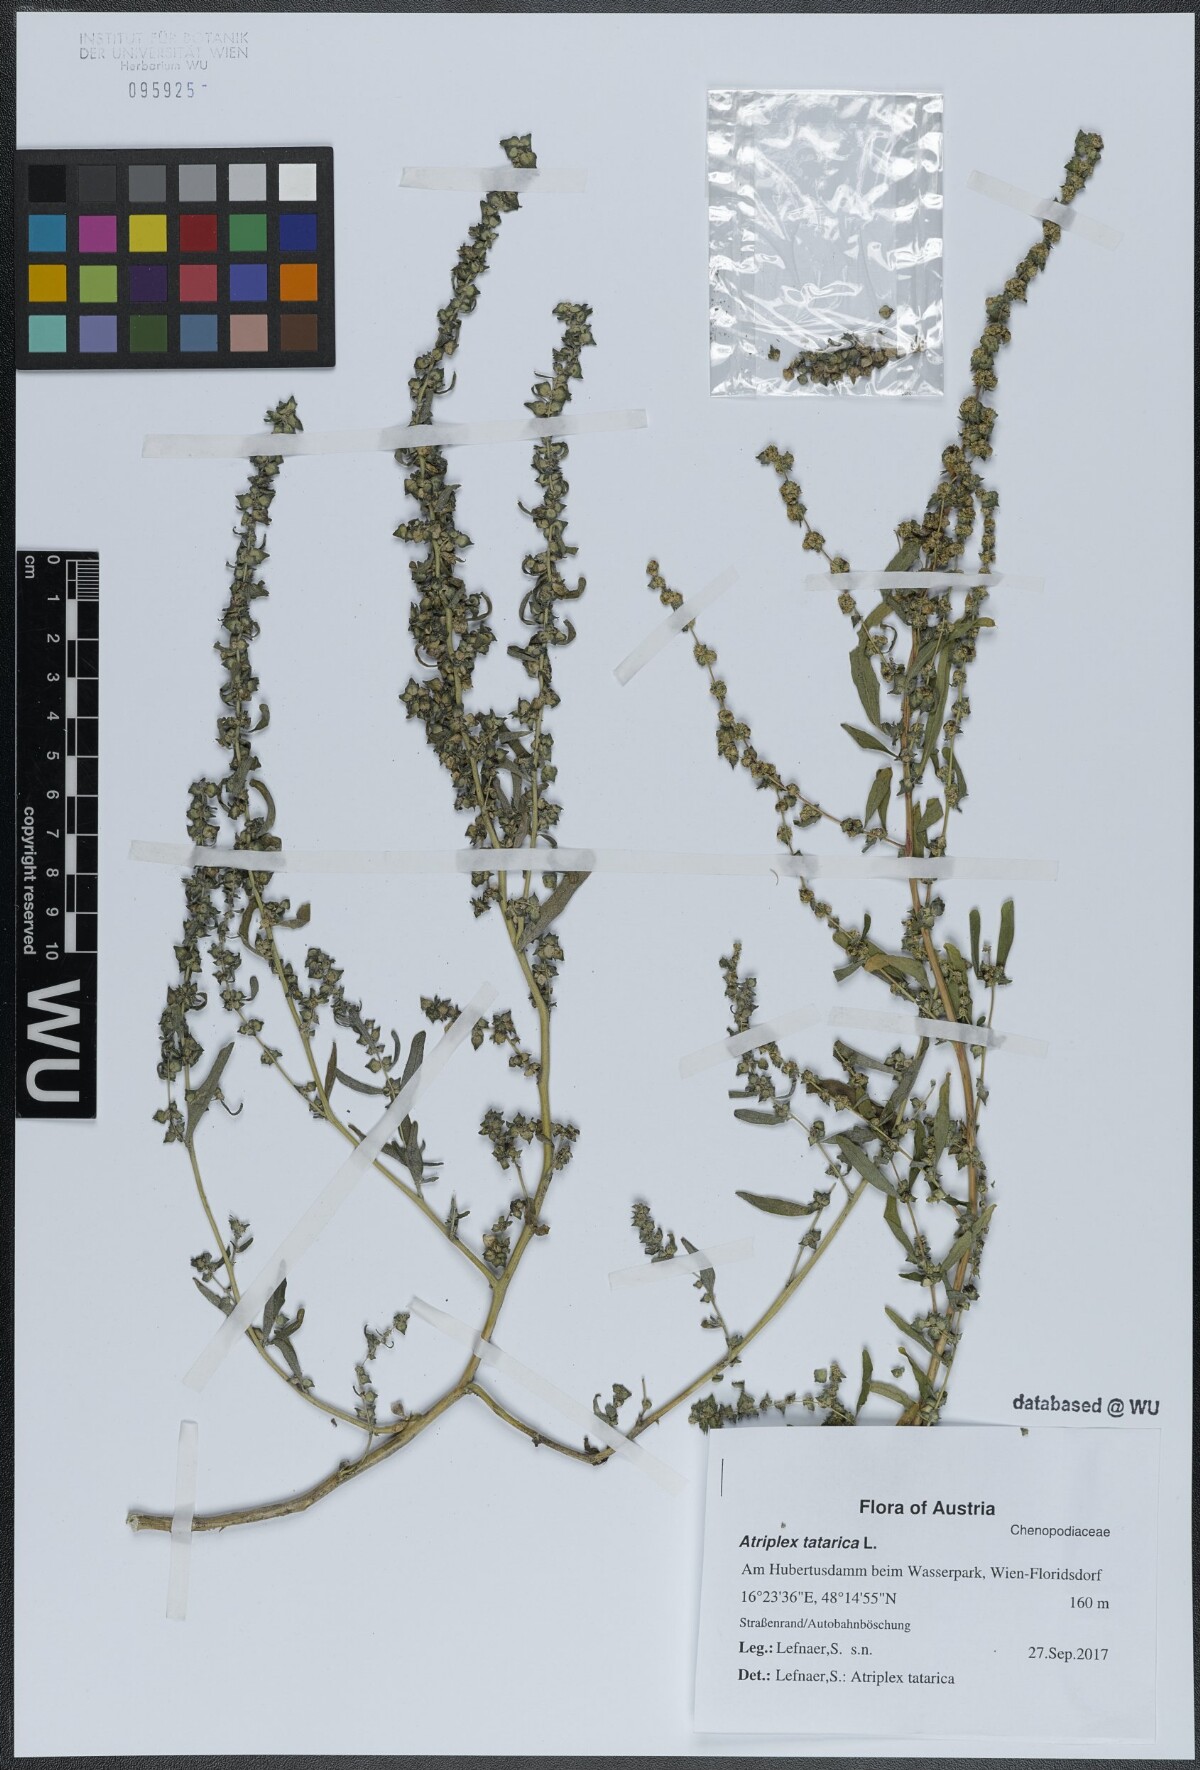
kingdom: Plantae
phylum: Tracheophyta
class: Magnoliopsida
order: Caryophyllales
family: Amaranthaceae
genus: Atriplex
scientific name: Atriplex tatarica
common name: Tatarian orache
